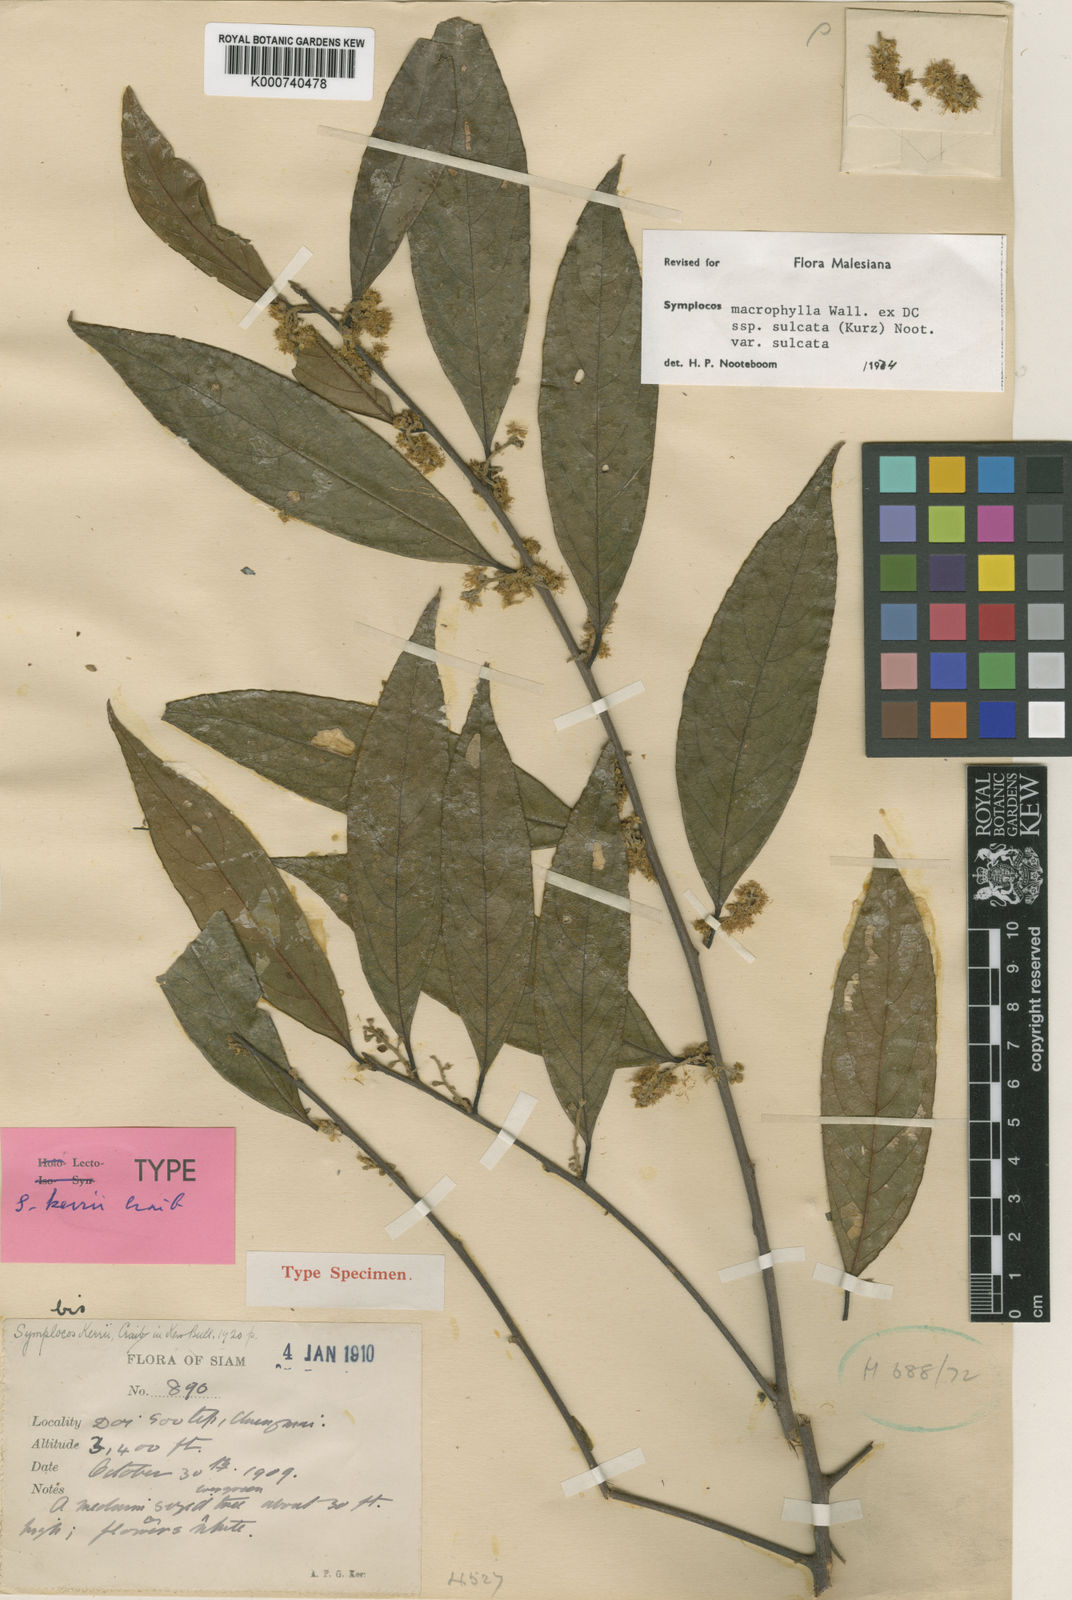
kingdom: Plantae
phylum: Tracheophyta
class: Magnoliopsida
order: Ericales
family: Symplocaceae
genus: Symplocos
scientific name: Symplocos sulcata
